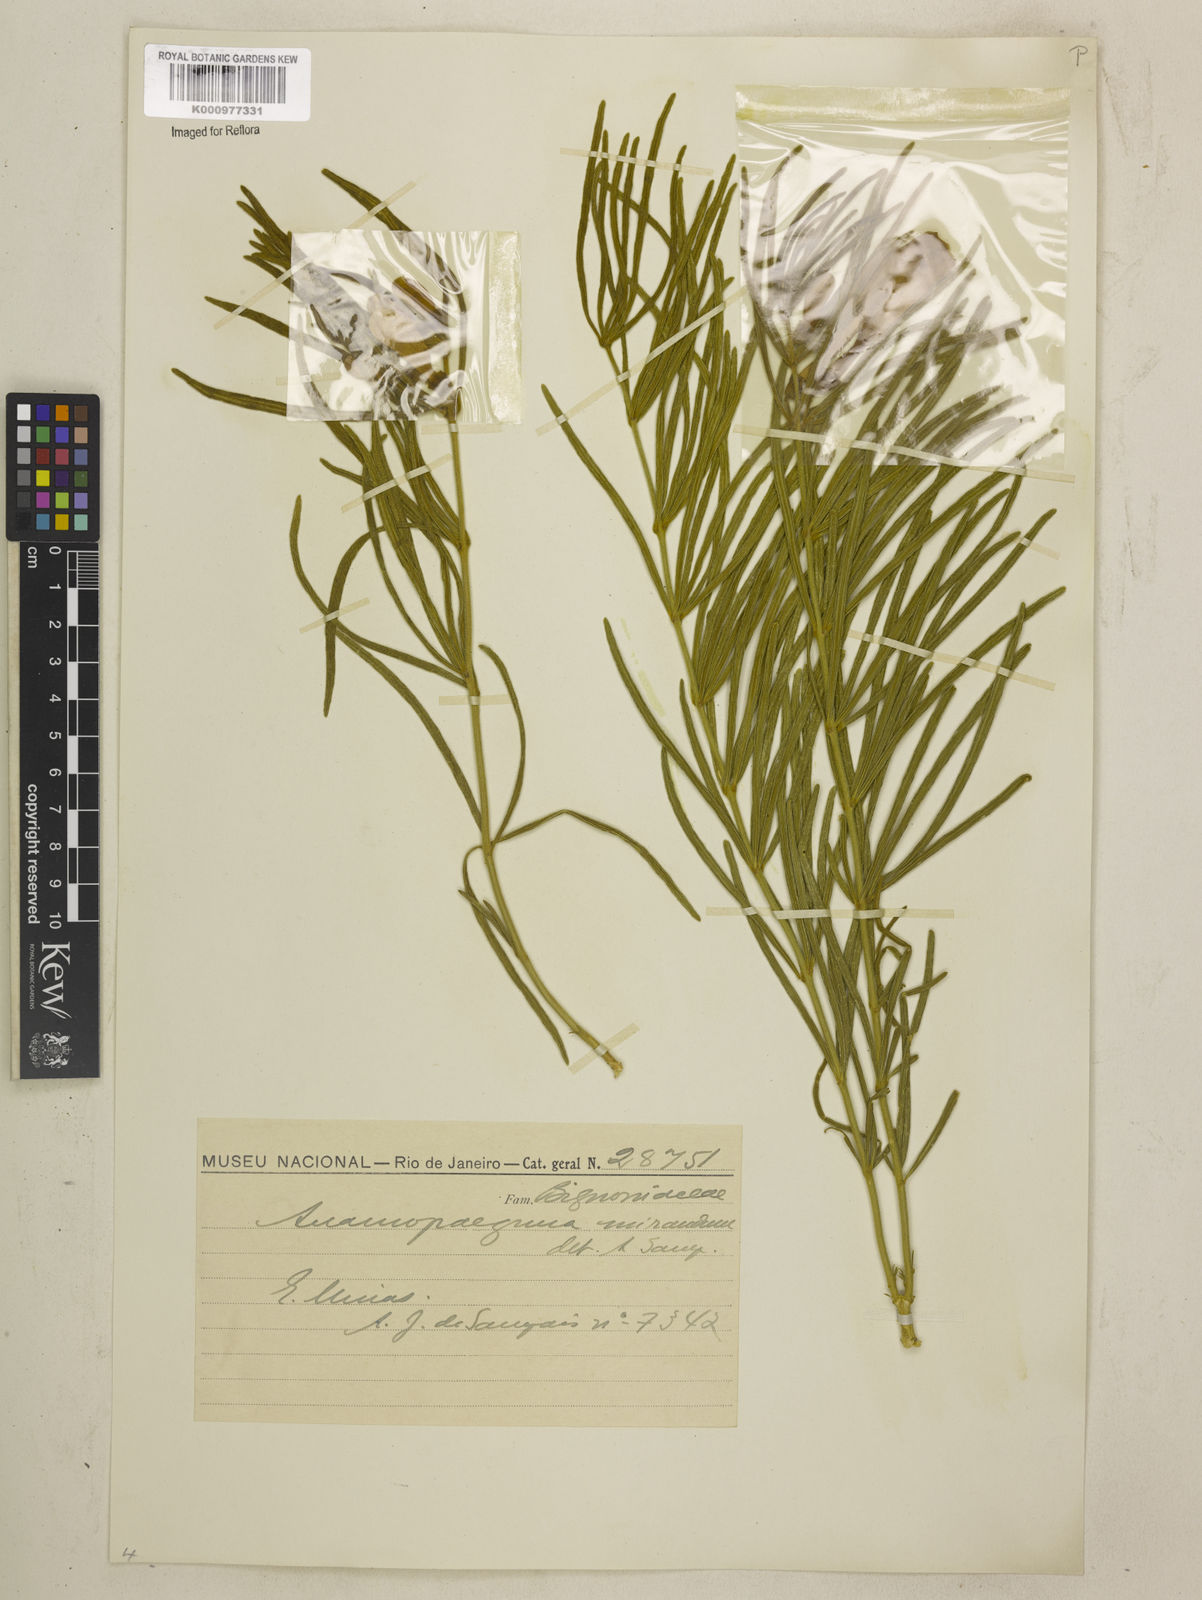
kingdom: Plantae
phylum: Tracheophyta
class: Magnoliopsida
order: Lamiales
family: Bignoniaceae
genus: Anemopaegma
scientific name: Anemopaegma arvense
